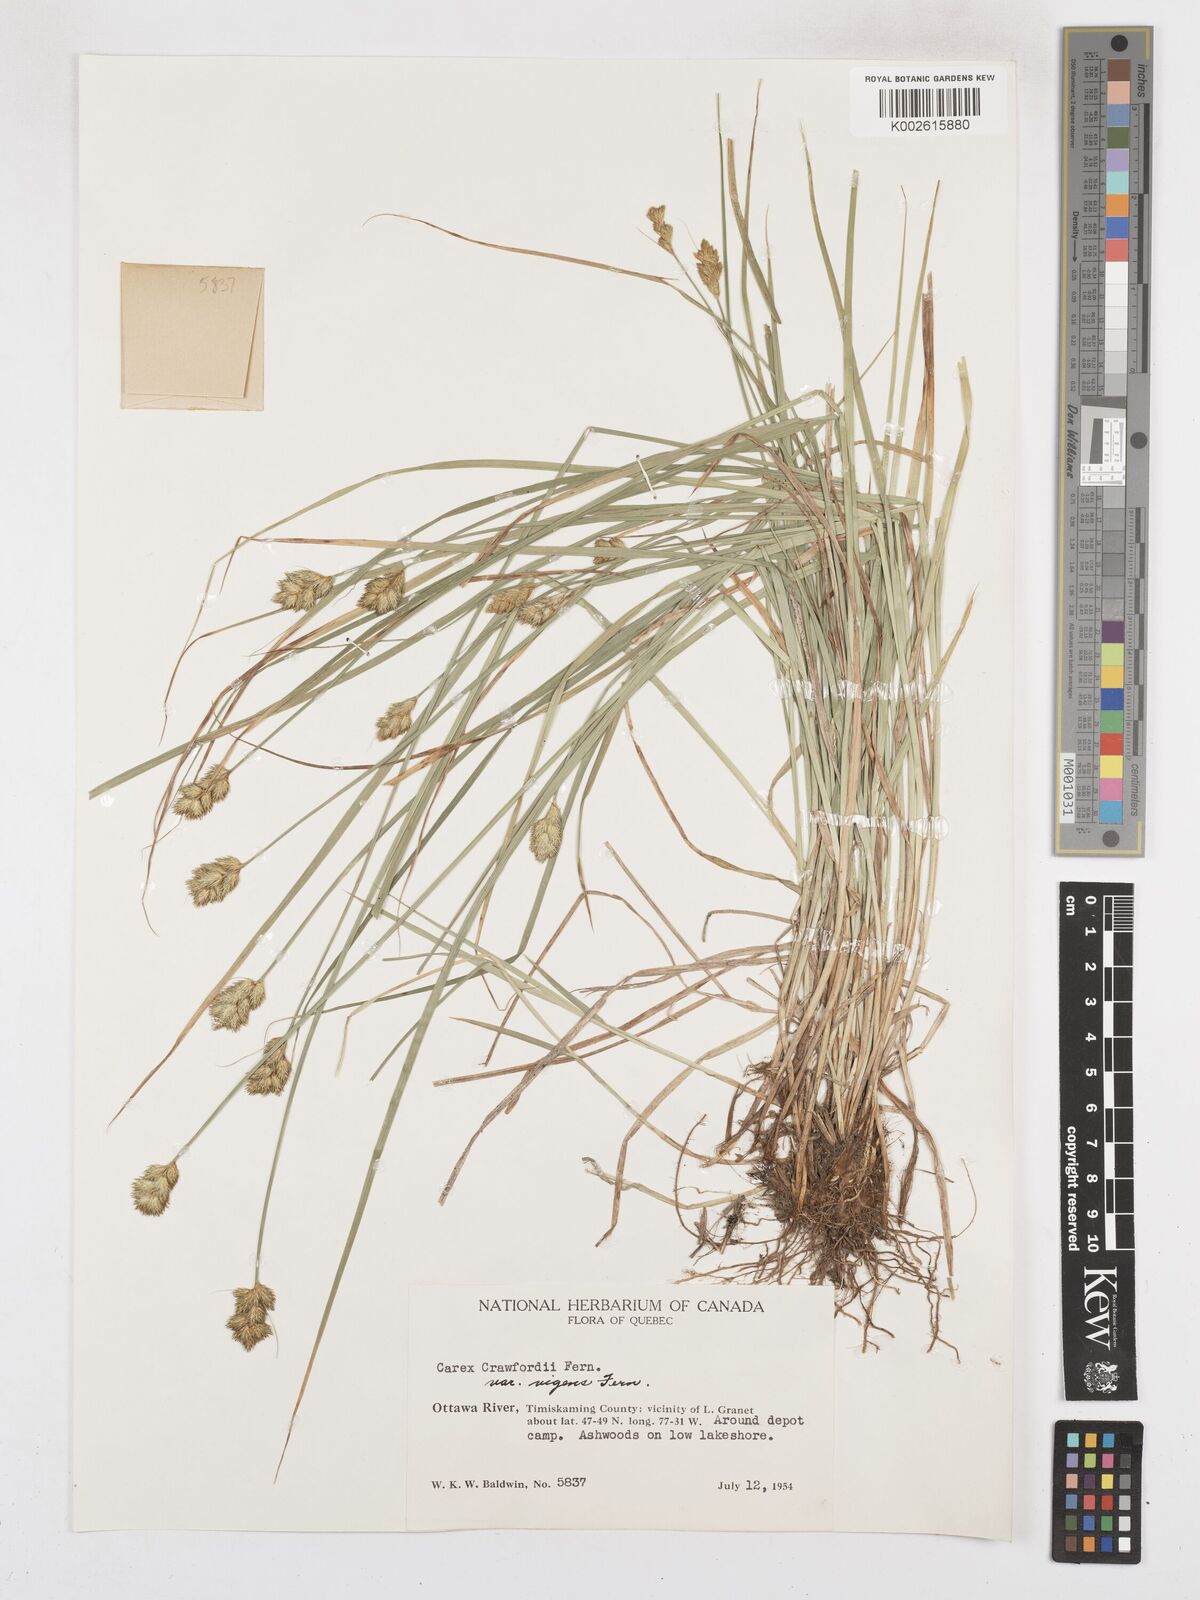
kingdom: Plantae
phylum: Tracheophyta
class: Liliopsida
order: Poales
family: Cyperaceae
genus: Carex
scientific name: Carex crawfordii
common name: Crawford's sedge
